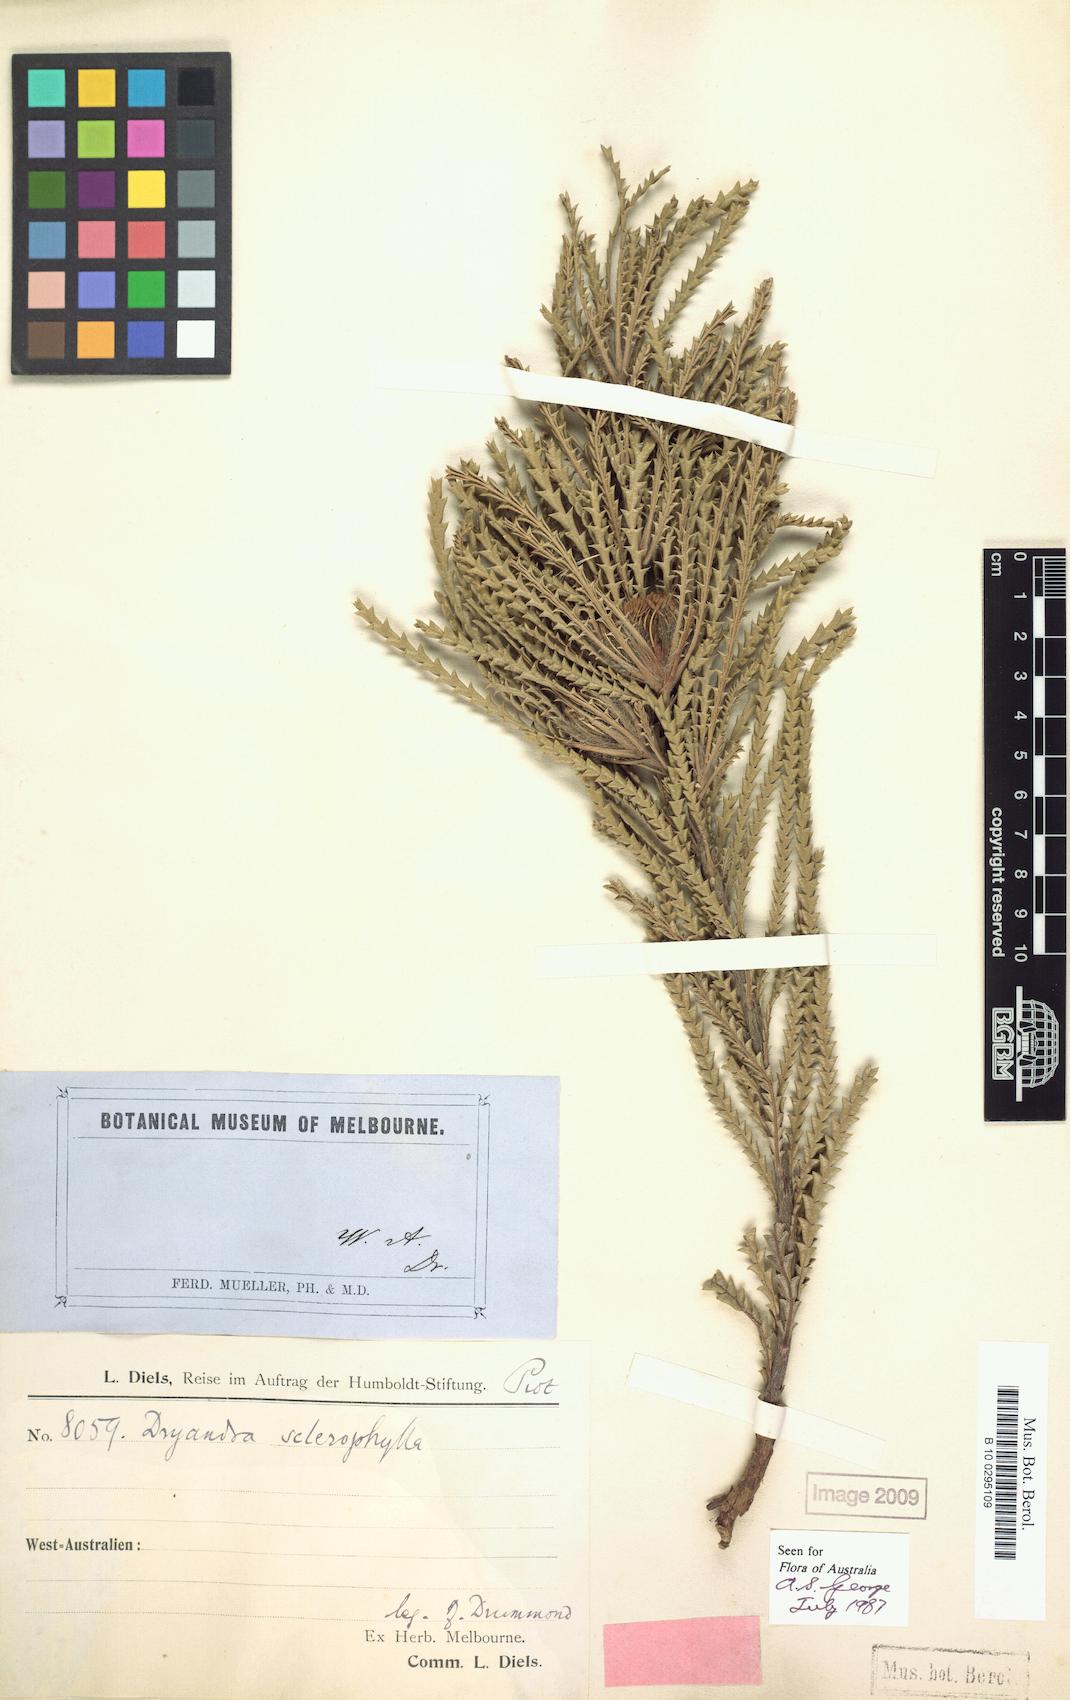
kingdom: Plantae
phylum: Tracheophyta
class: Magnoliopsida
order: Proteales
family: Proteaceae
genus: Banksia
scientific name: Banksia sclerophylla
